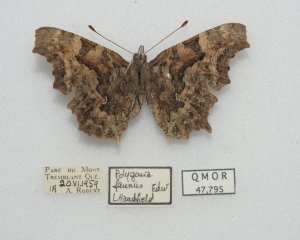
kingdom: Animalia
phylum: Arthropoda
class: Insecta
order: Lepidoptera
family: Nymphalidae
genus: Polygonia
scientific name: Polygonia faunus
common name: Green Comma
